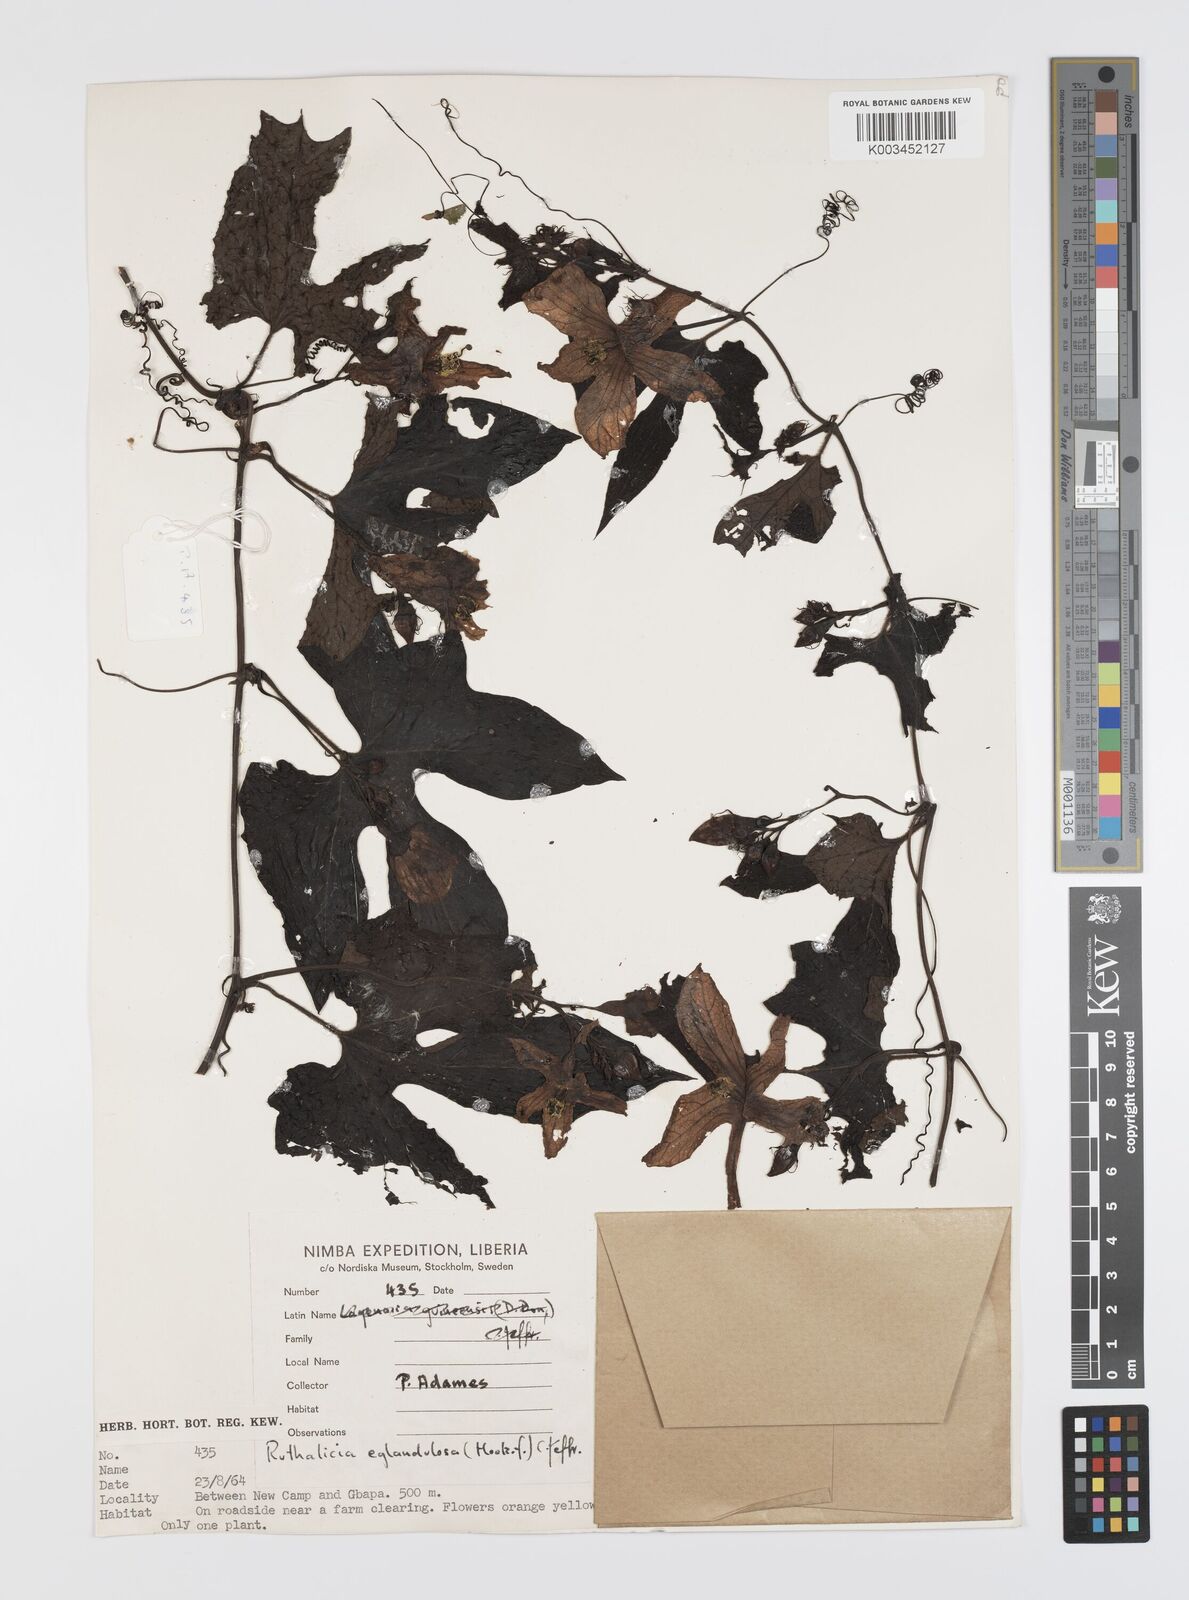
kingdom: Plantae
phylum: Tracheophyta
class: Magnoliopsida
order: Cucurbitales
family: Cucurbitaceae
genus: Ruthalicia
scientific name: Ruthalicia eglandulosa
